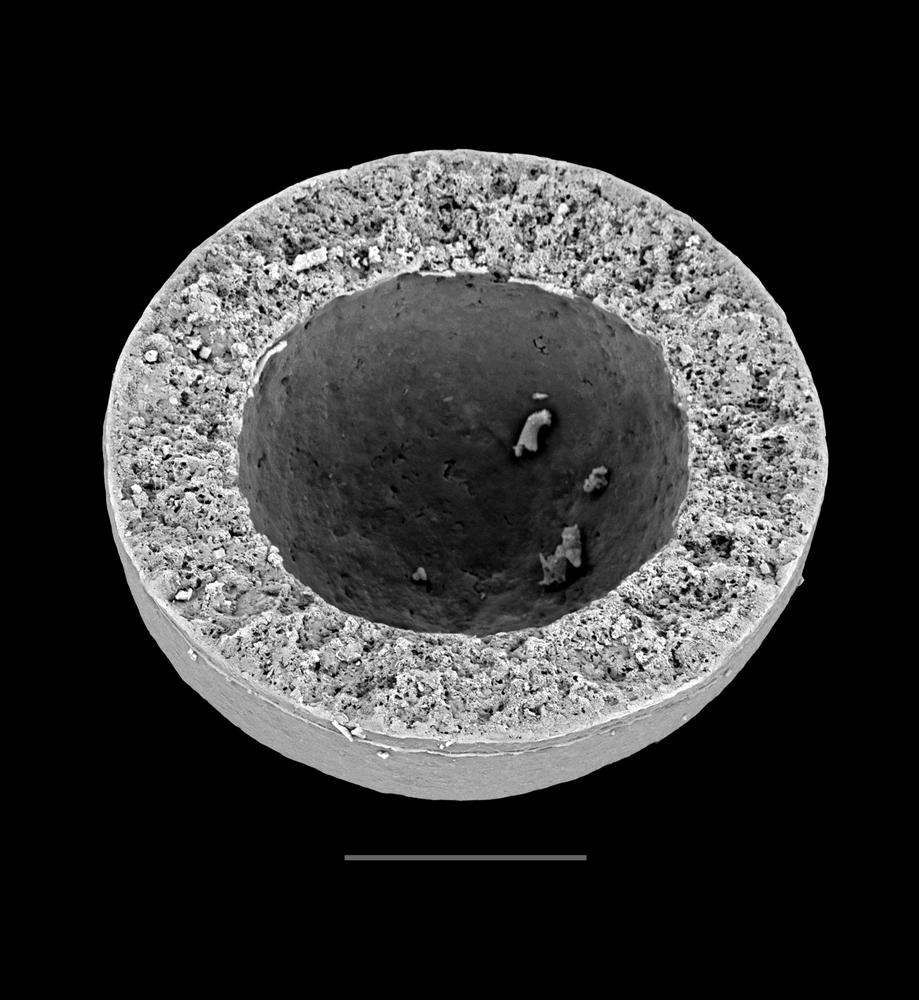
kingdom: Animalia
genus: Vikisphaera
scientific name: Vikisphaera
